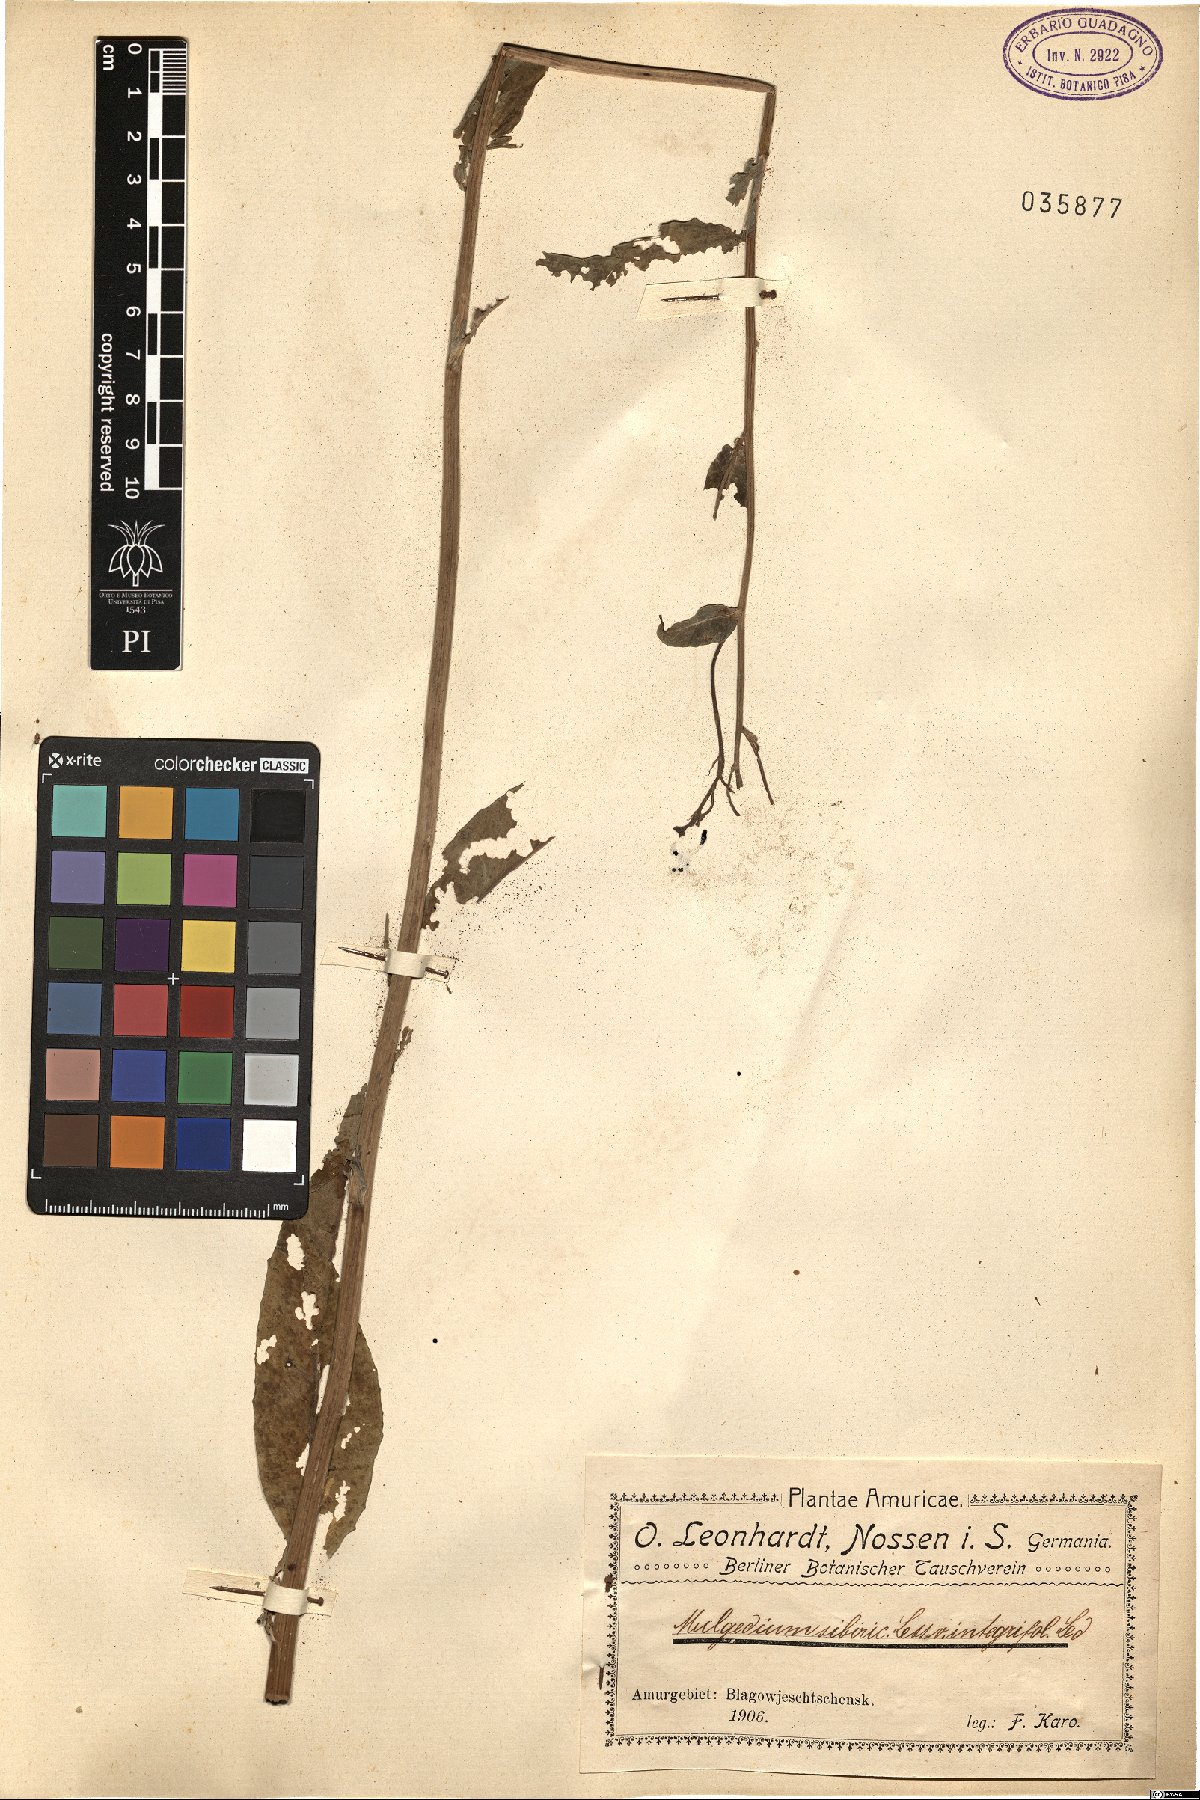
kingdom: Plantae
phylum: Tracheophyta
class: Magnoliopsida
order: Asterales
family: Asteraceae
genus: Lactuca
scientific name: Lactuca sibirica
